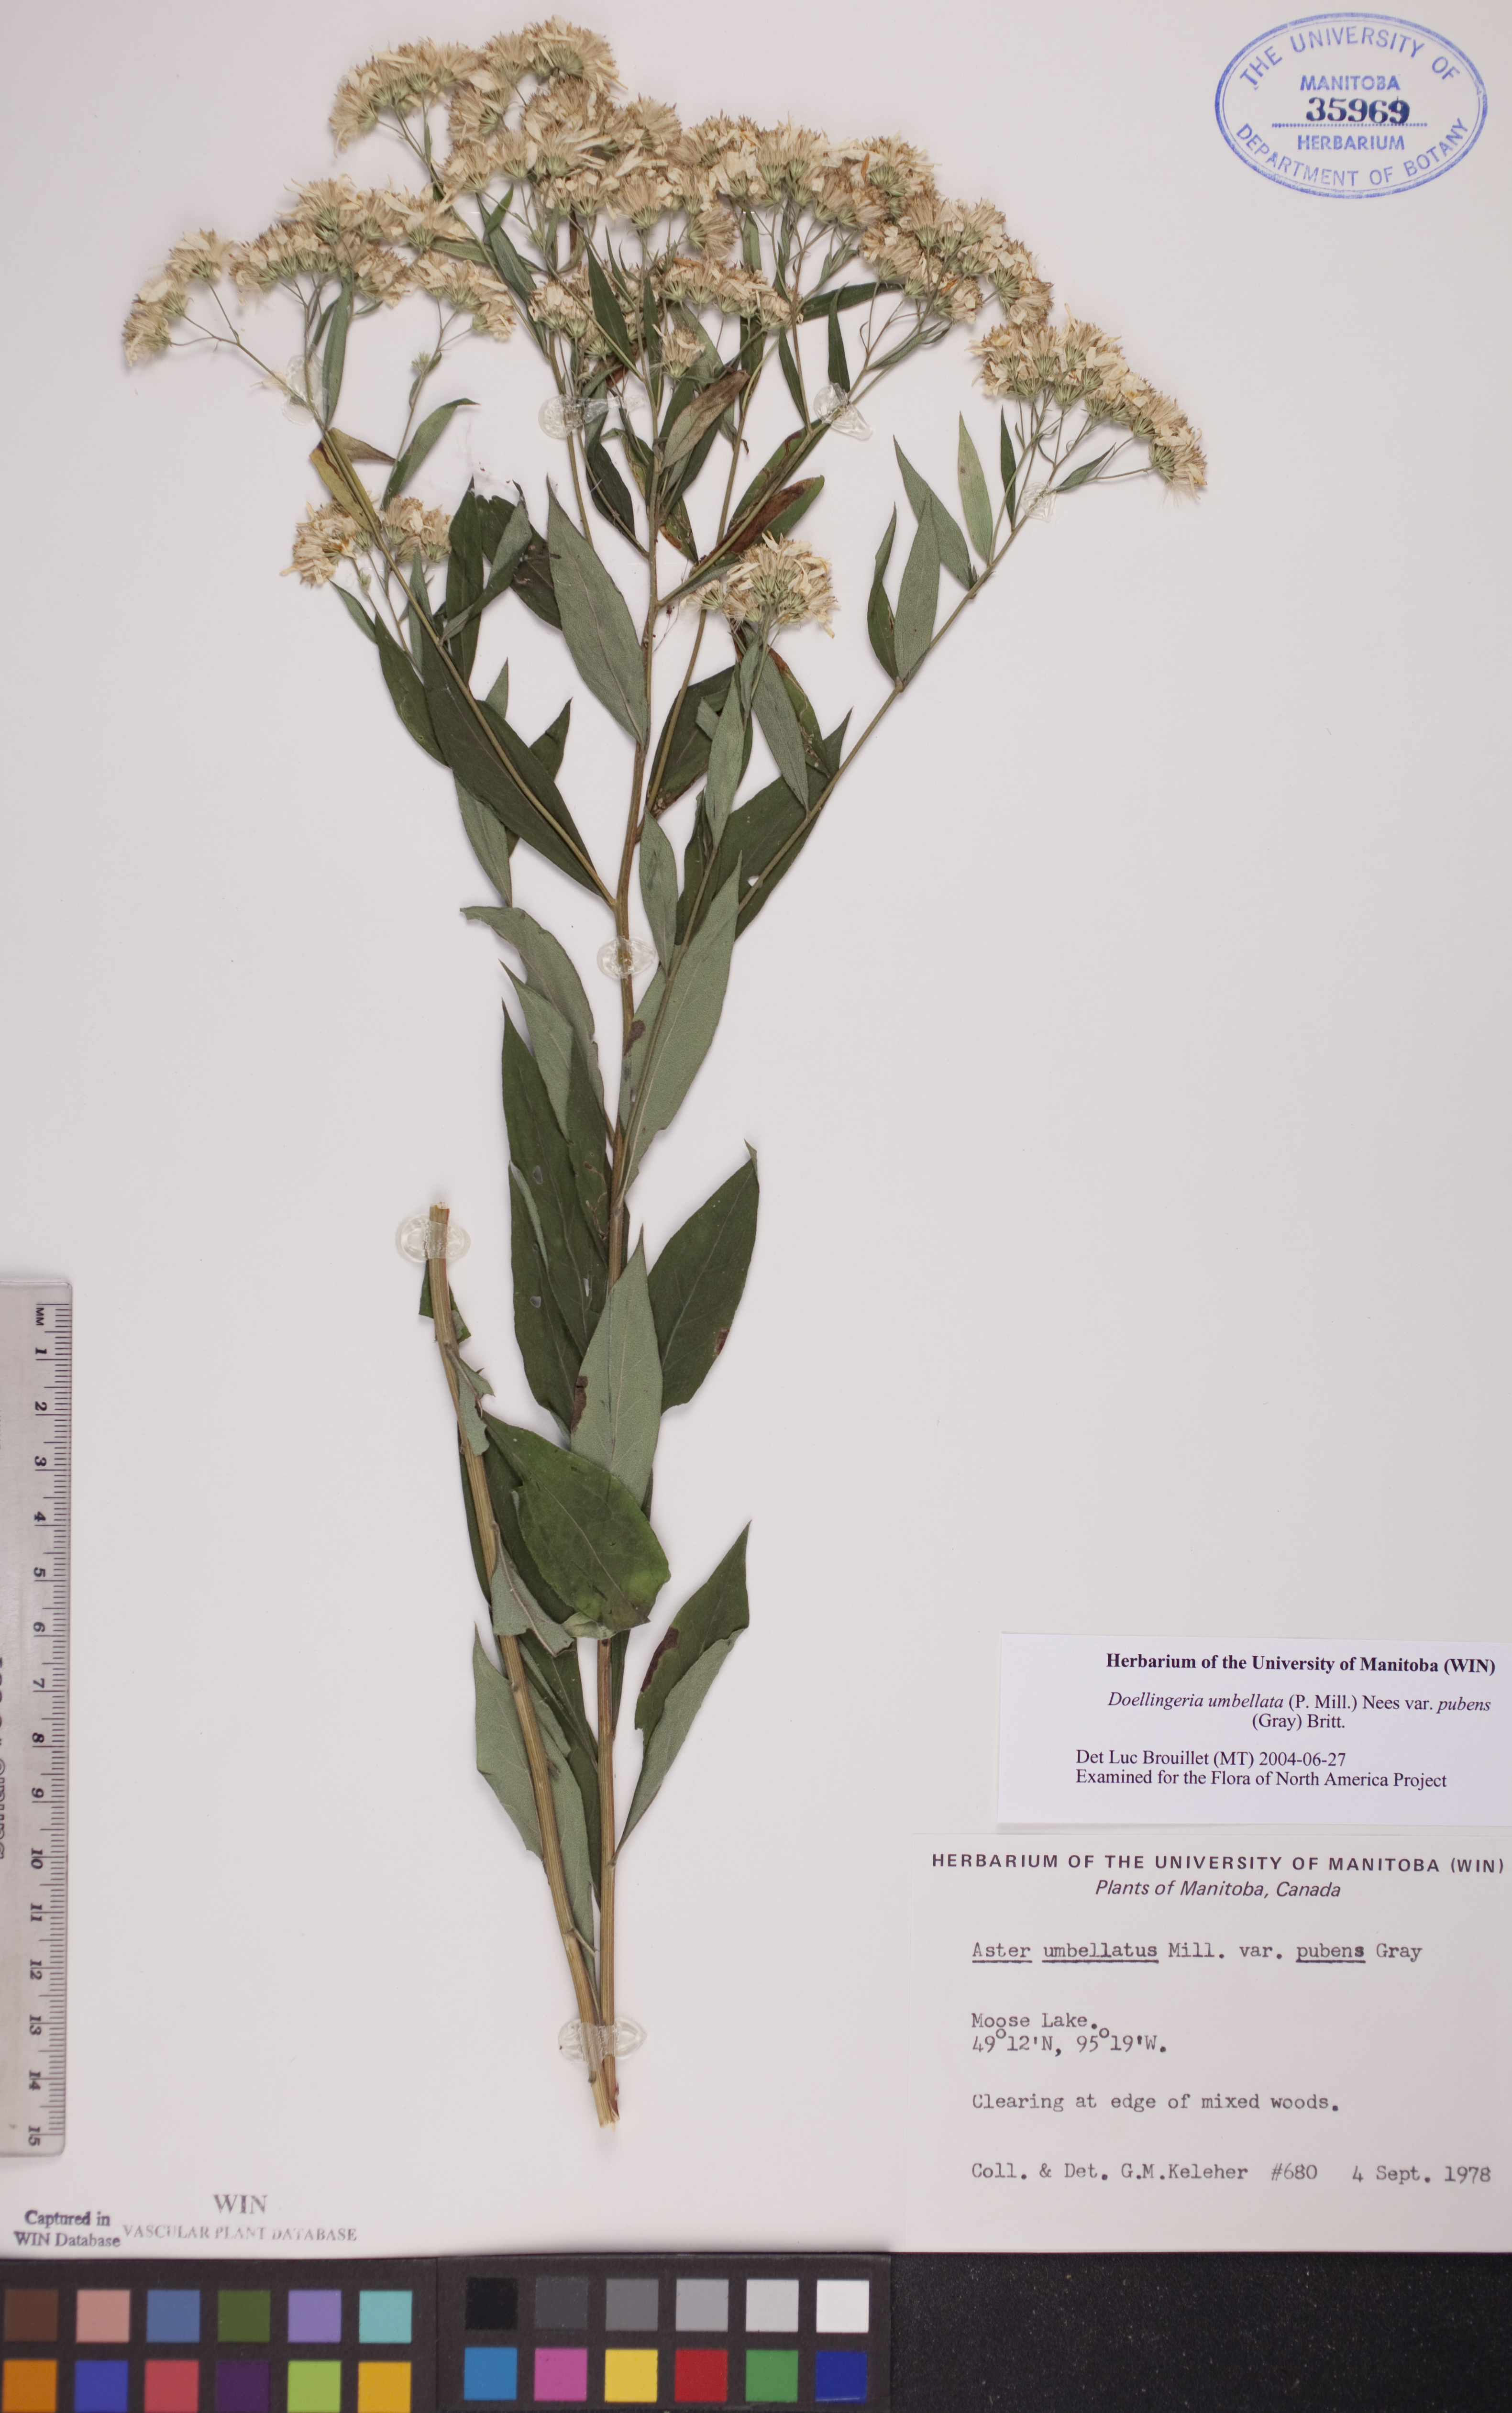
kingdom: Plantae
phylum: Tracheophyta
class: Magnoliopsida
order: Asterales
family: Asteraceae
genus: Doellingeria
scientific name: Doellingeria umbellata
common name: Flat-top white aster
